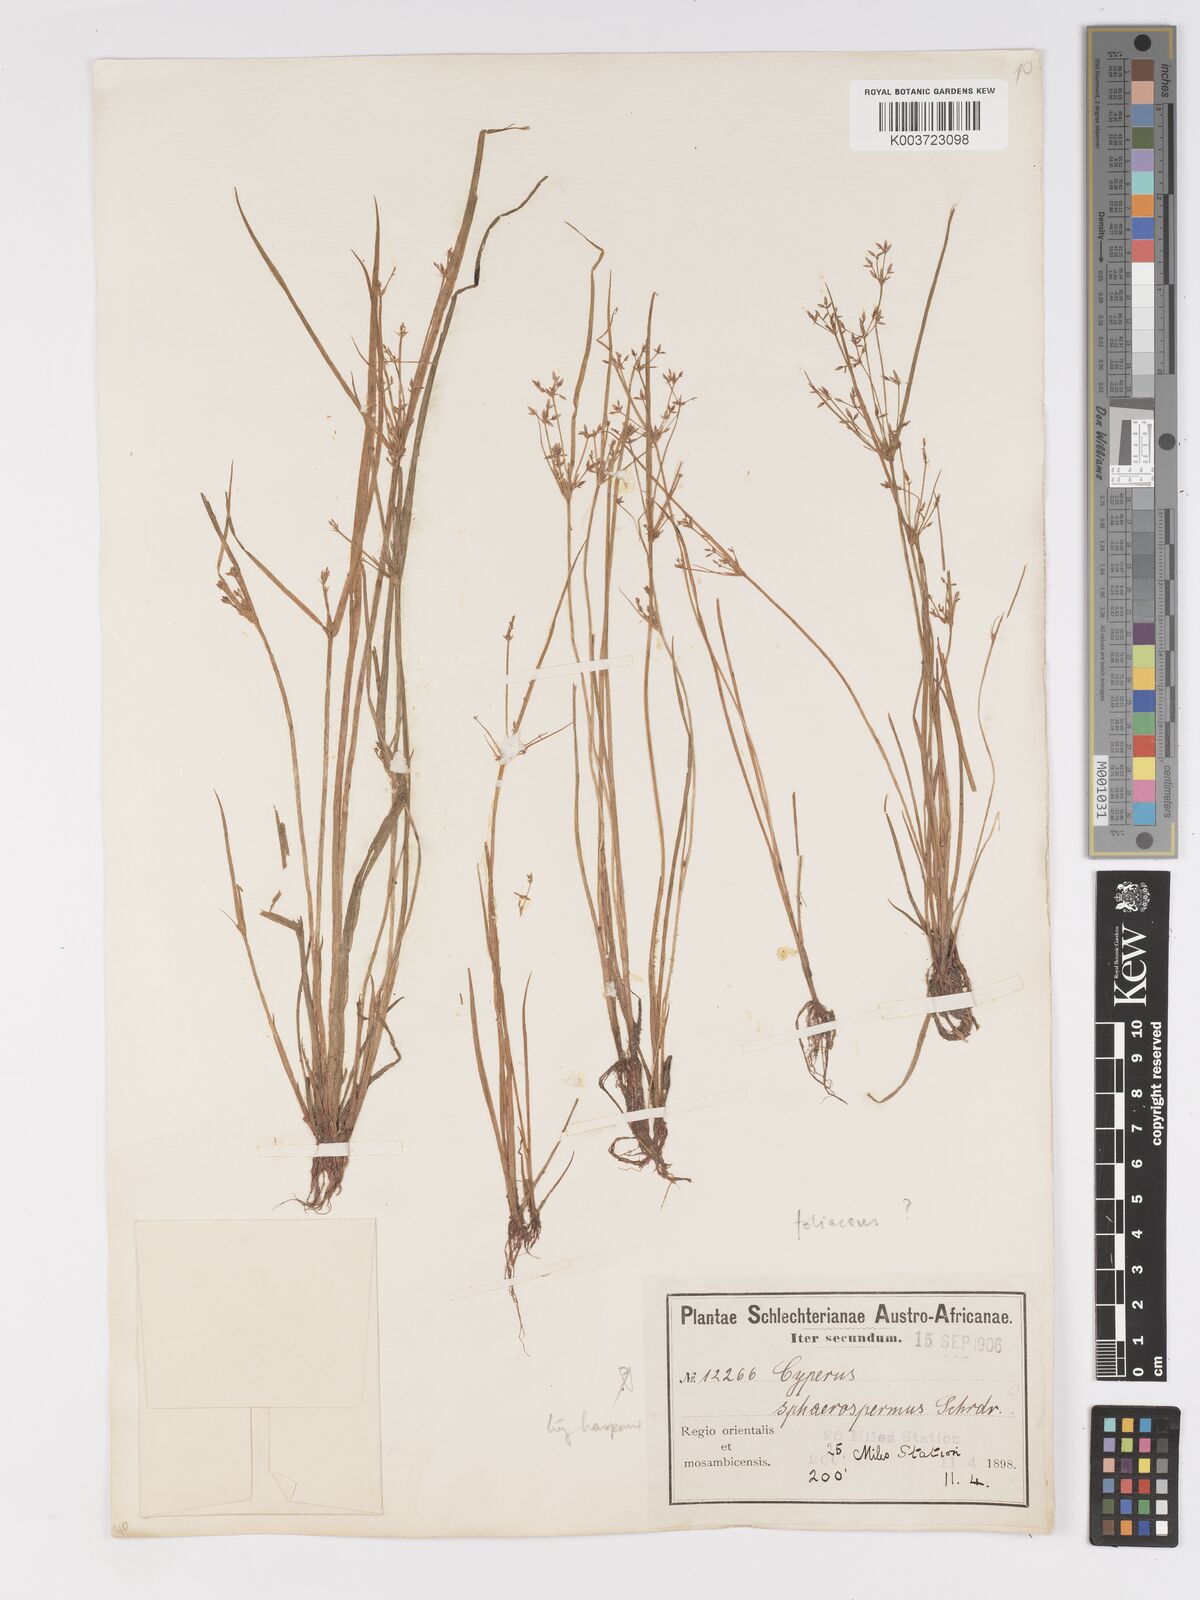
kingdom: Plantae
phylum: Tracheophyta
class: Liliopsida
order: Poales
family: Cyperaceae
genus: Cyperus
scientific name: Cyperus haspan
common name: Haspan flatsedge
